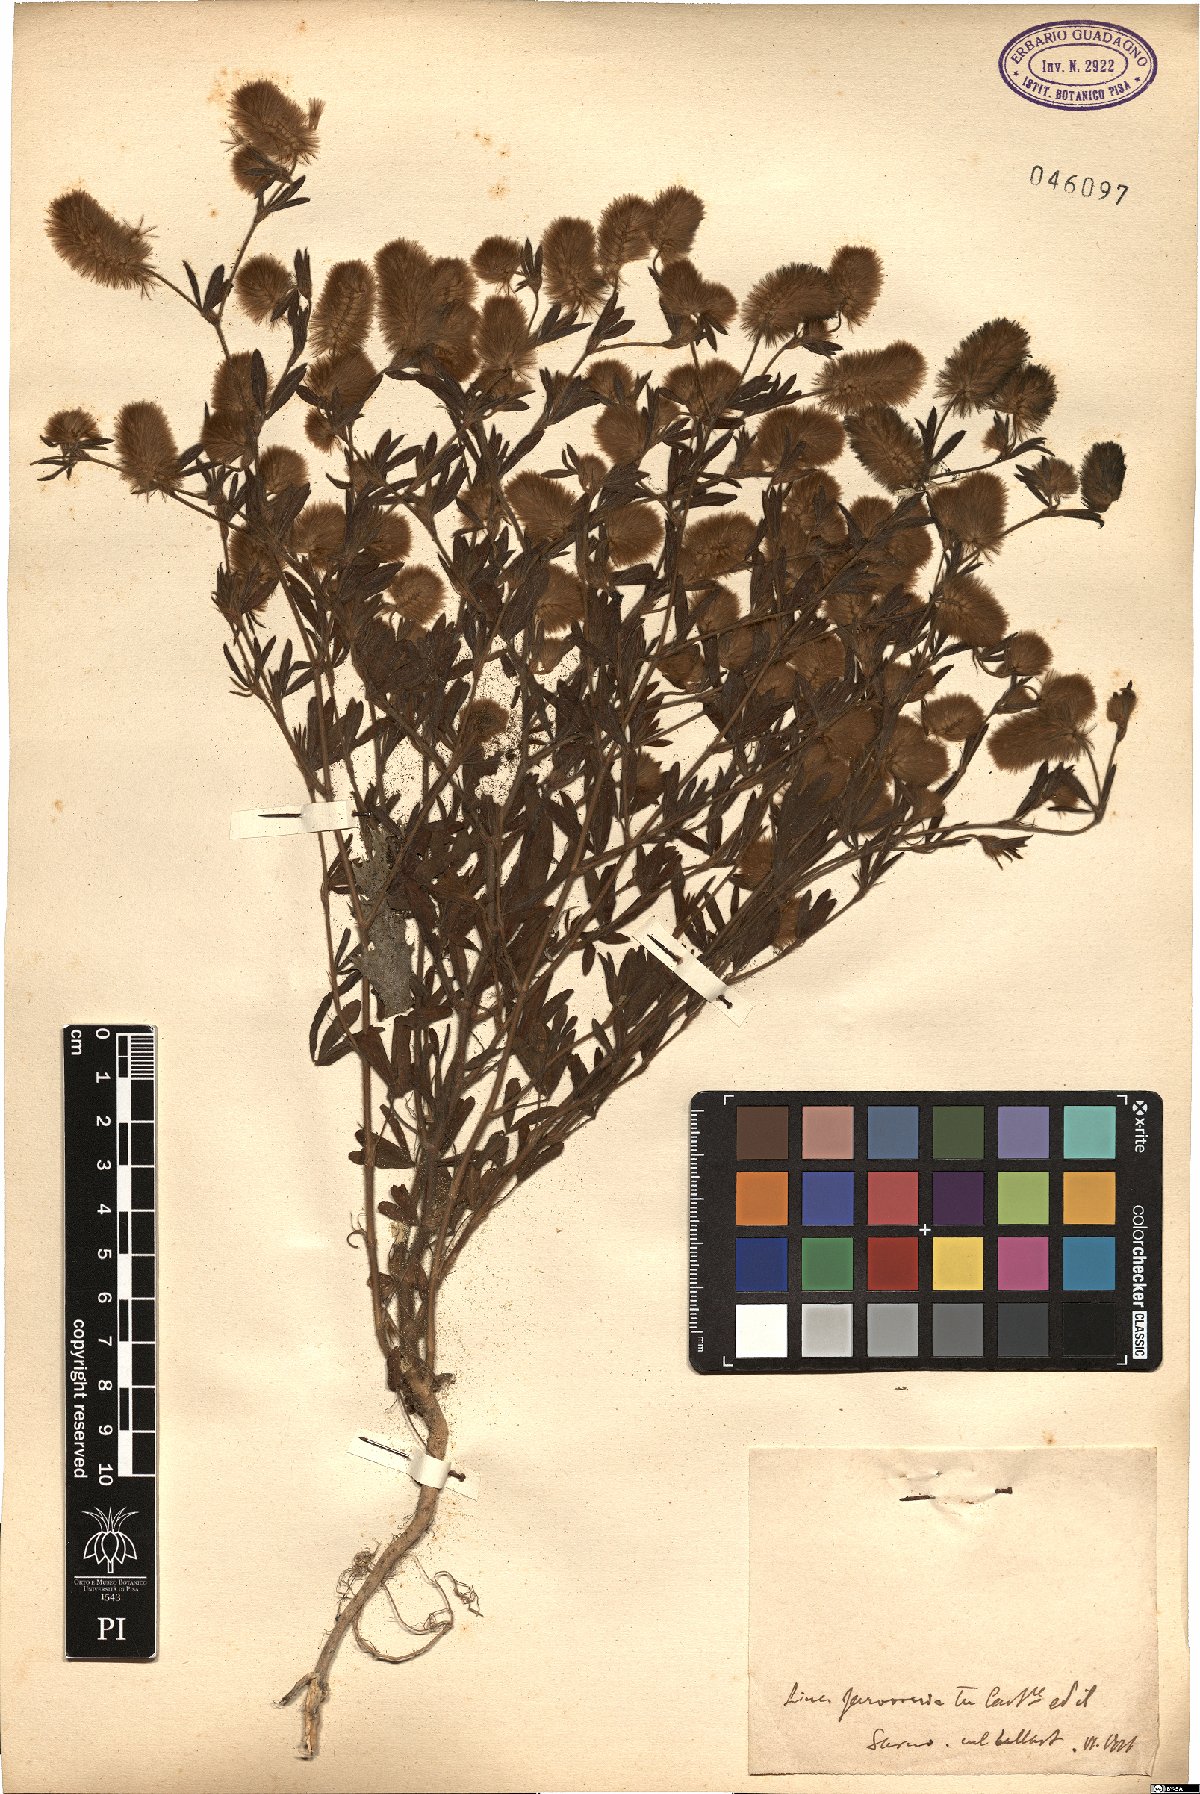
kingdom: Plantae
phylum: Tracheophyta
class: Magnoliopsida
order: Fabales
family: Fabaceae
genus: Trifolium
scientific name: Trifolium
